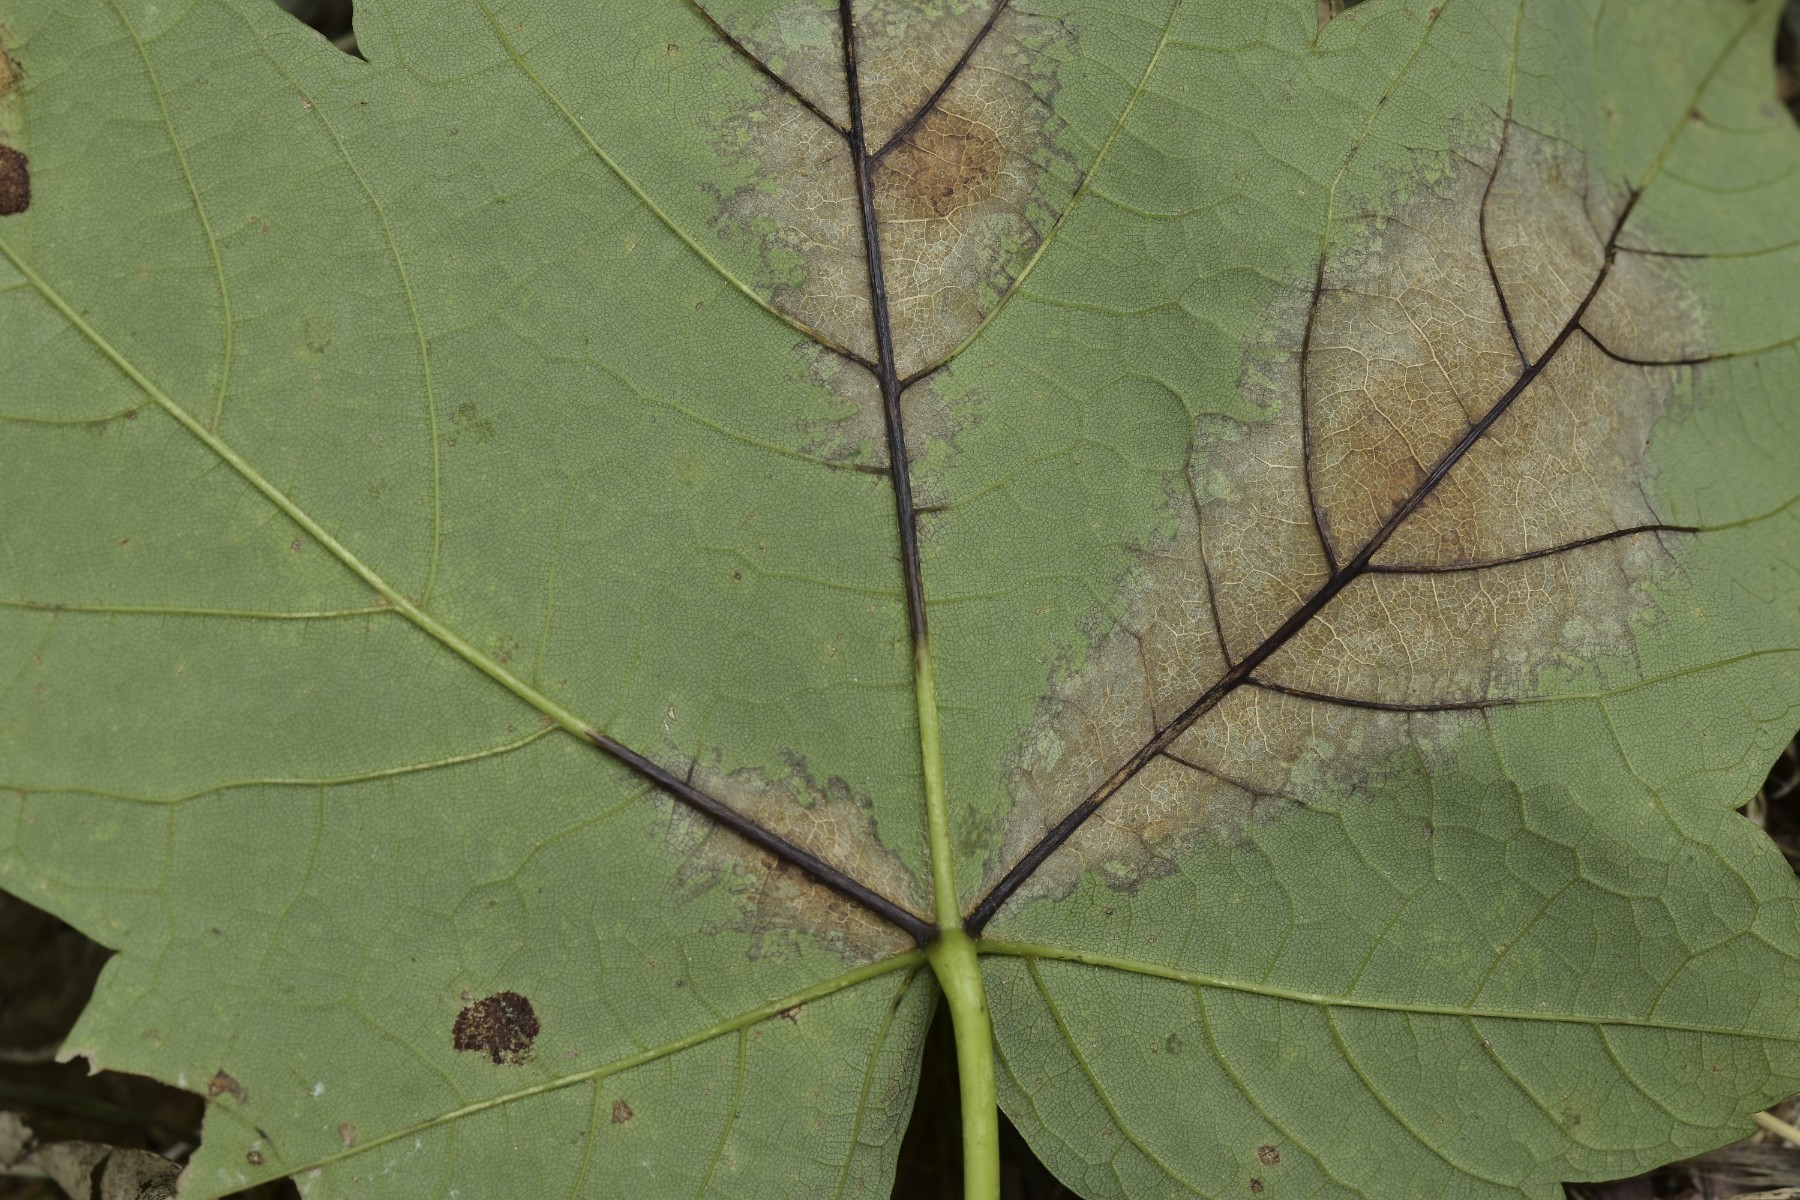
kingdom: Fungi
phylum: Ascomycota
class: Sordariomycetes
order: Diaporthales
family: Gnomoniaceae
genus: Pleuroceras
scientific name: Pleuroceras pseudoplatani
